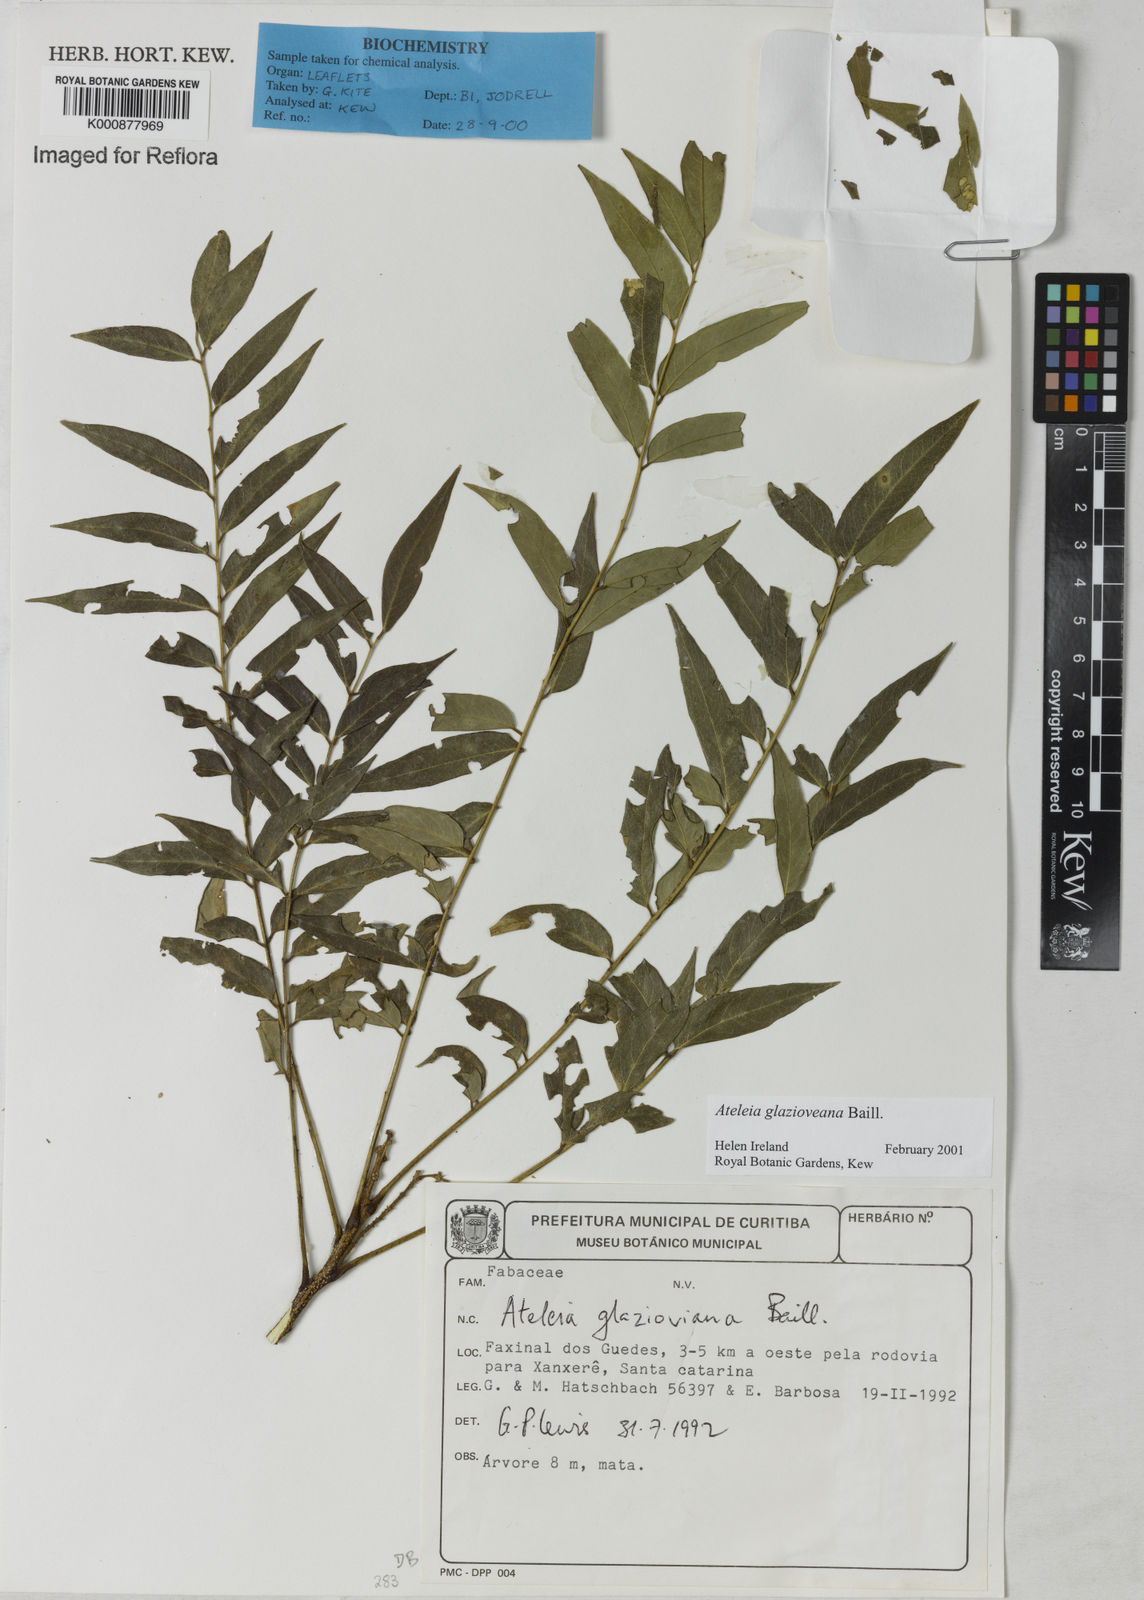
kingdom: Plantae
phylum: Tracheophyta
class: Magnoliopsida
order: Fabales
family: Fabaceae
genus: Ateleia
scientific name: Ateleia glazioveana
